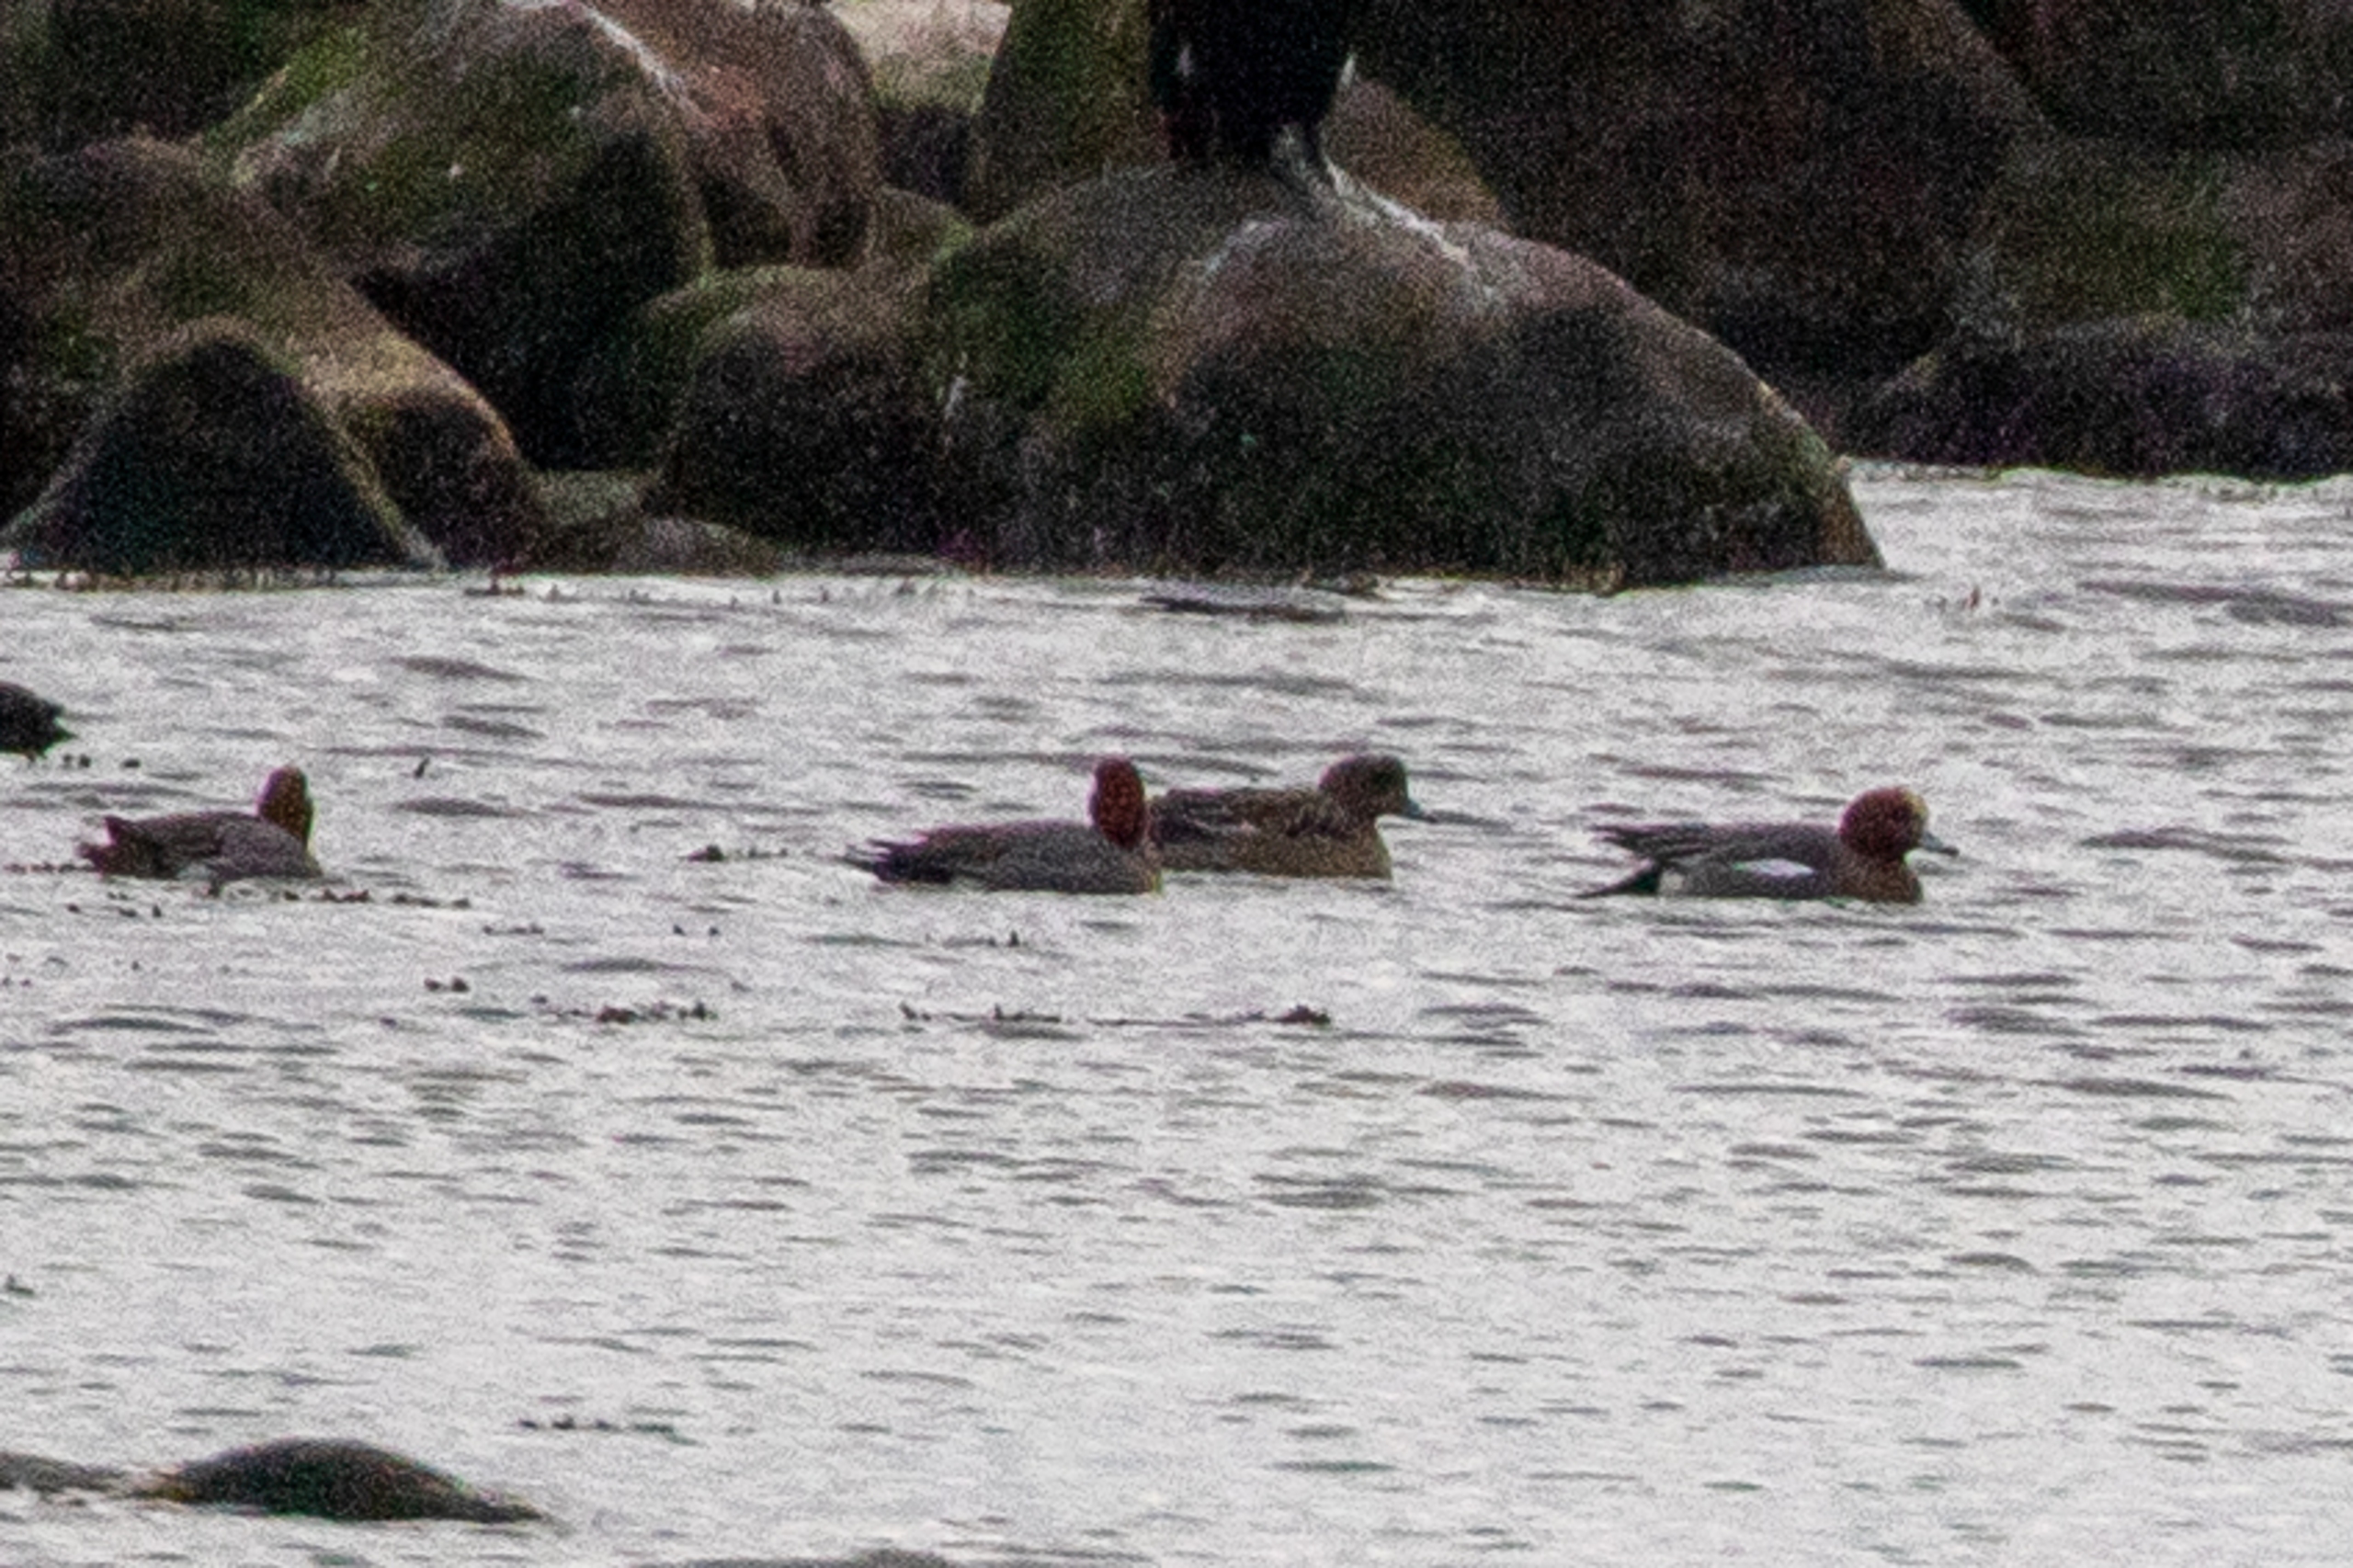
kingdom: Animalia
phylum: Chordata
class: Aves
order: Anseriformes
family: Anatidae
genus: Mareca
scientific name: Mareca penelope
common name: Pibeand
